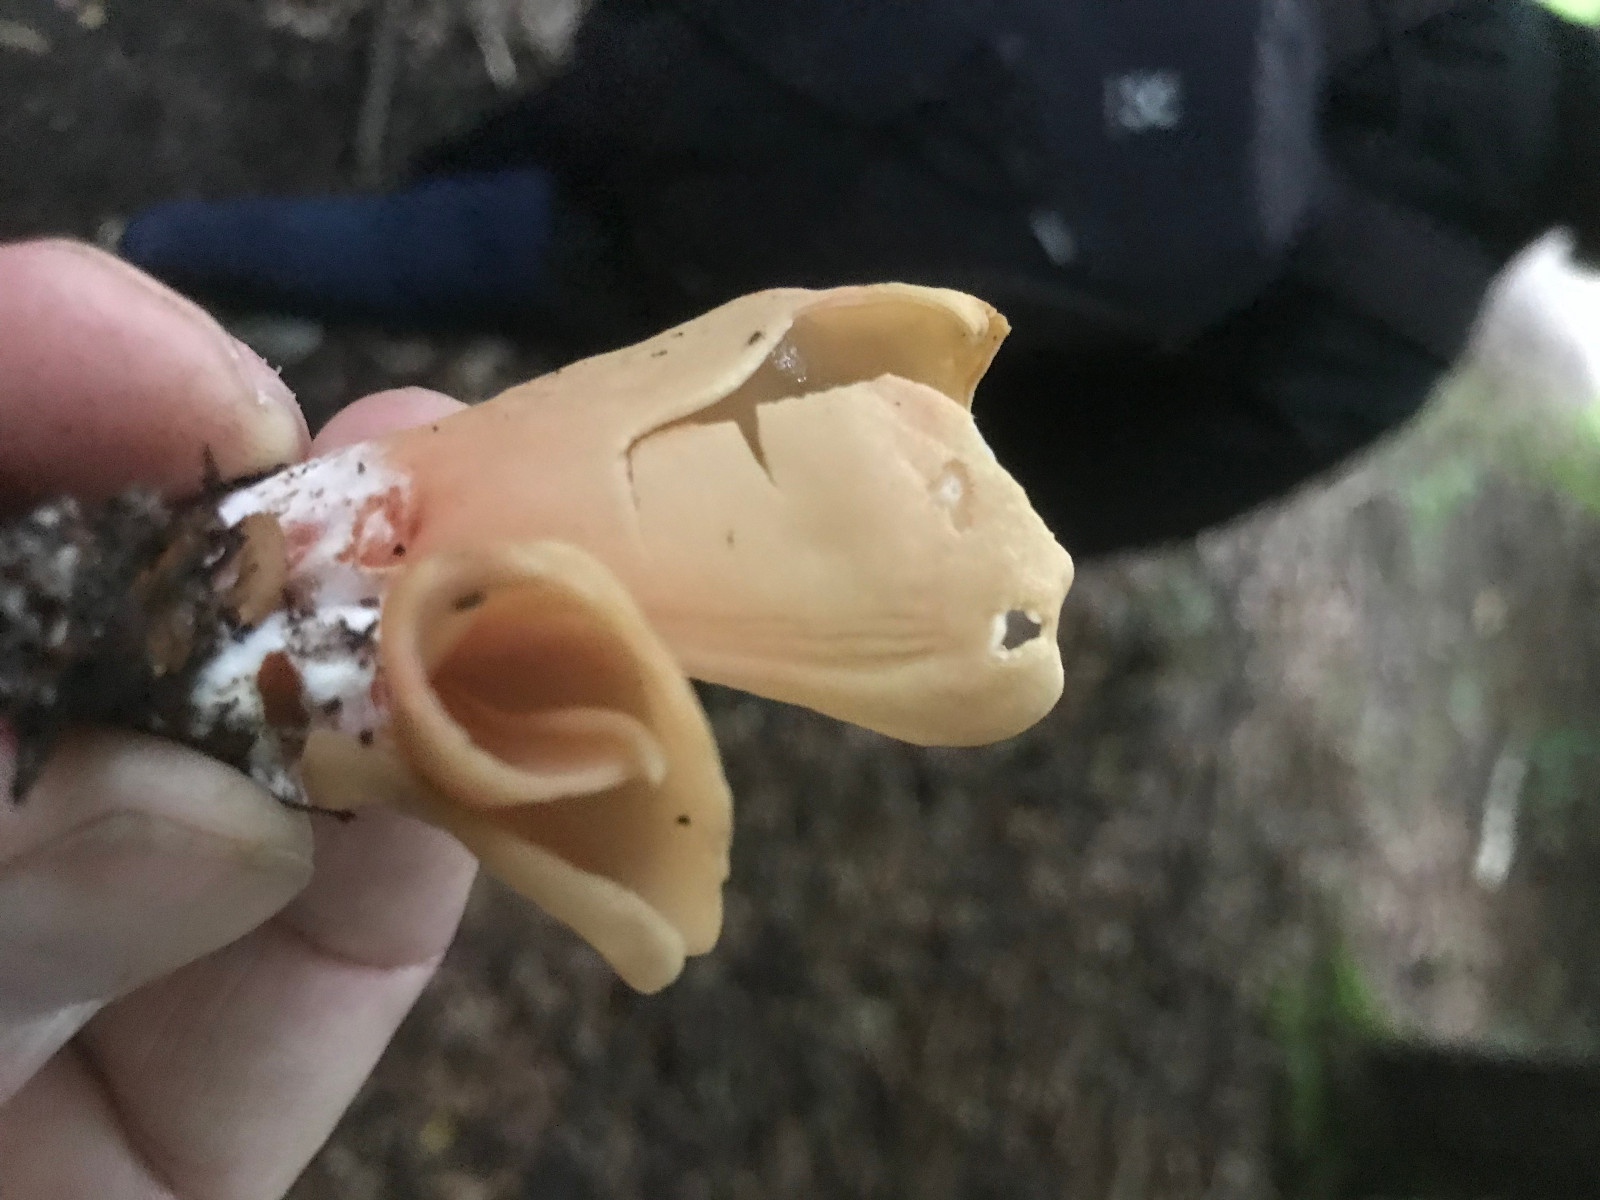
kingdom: Fungi
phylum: Ascomycota
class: Pezizomycetes
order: Pezizales
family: Otideaceae
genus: Otidea
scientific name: Otidea onotica
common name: æsel-ørebæger
